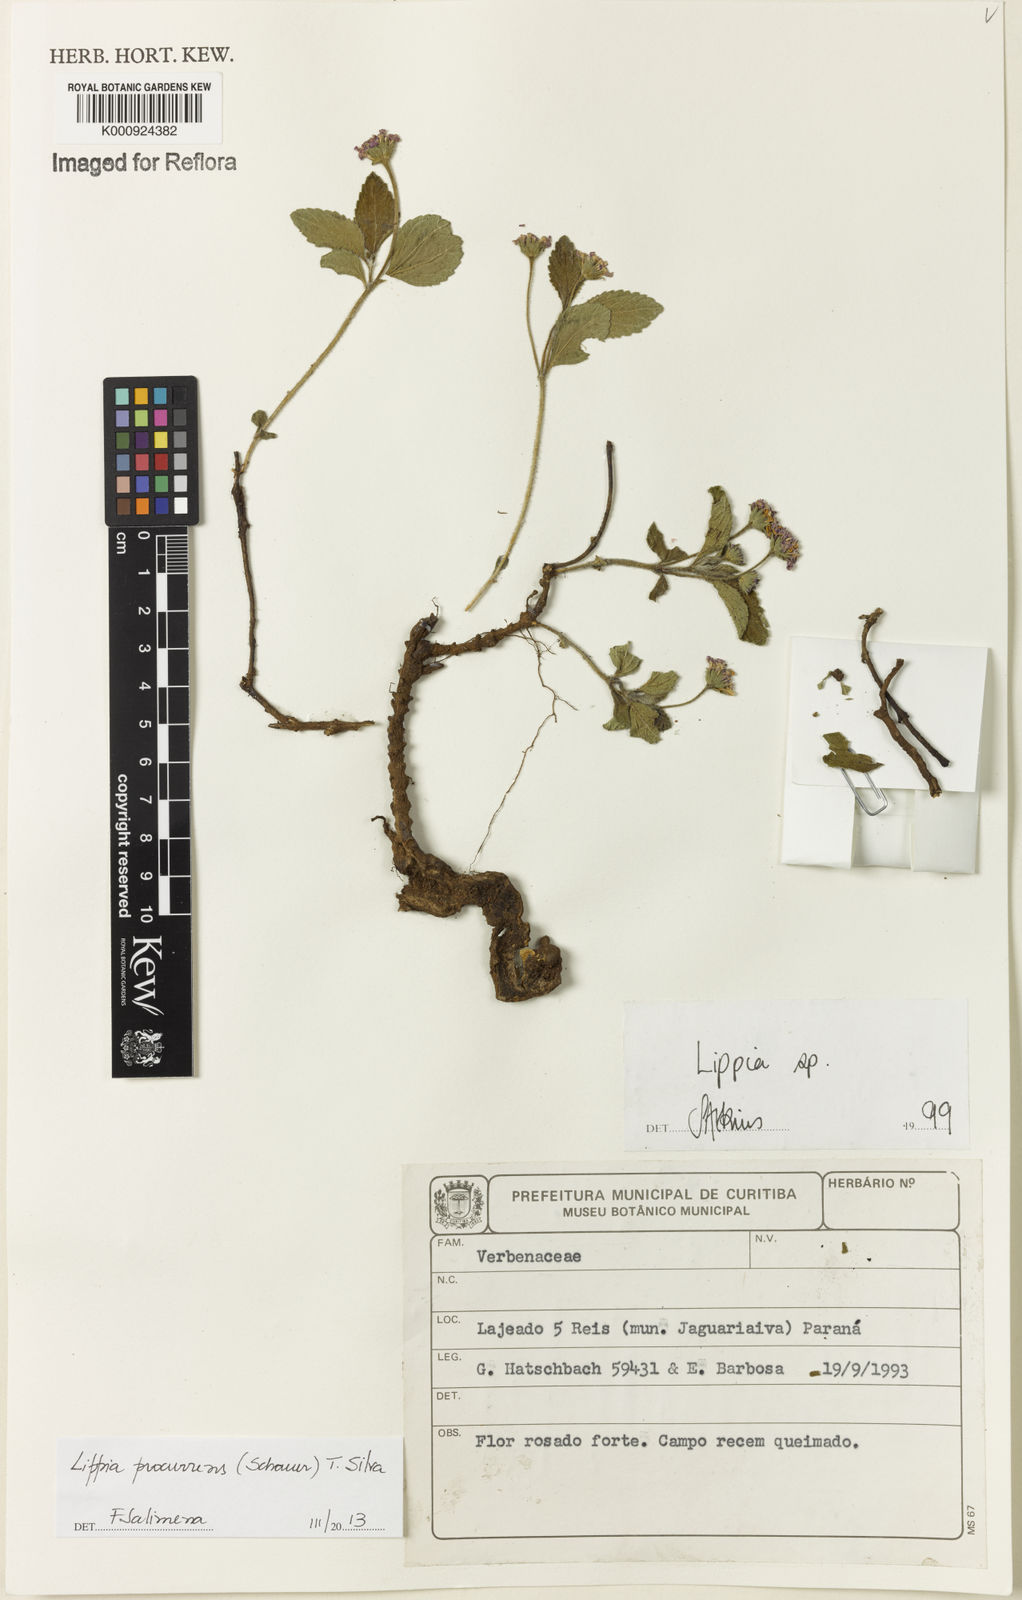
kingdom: Plantae
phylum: Tracheophyta
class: Magnoliopsida
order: Lamiales
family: Verbenaceae
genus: Lippia
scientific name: Lippia procurrens
